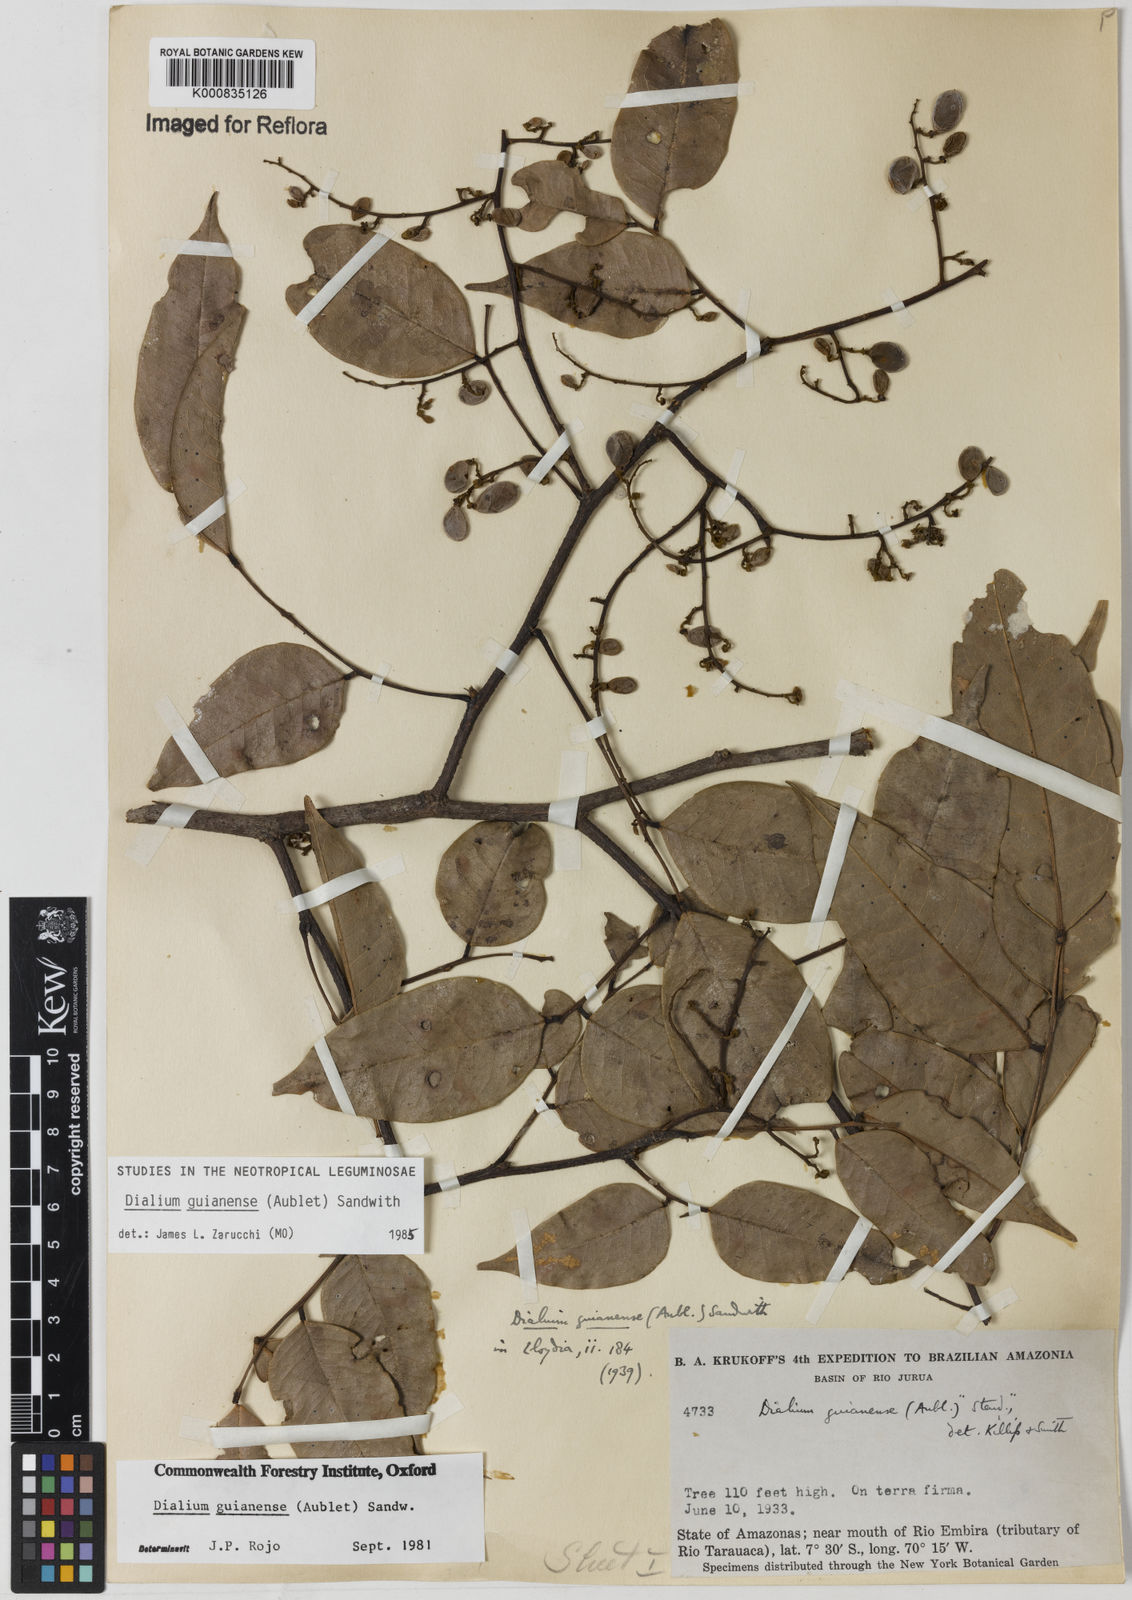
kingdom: Plantae
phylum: Tracheophyta
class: Magnoliopsida
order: Fabales
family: Fabaceae
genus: Dialium
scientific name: Dialium guianense
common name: Ironwood
